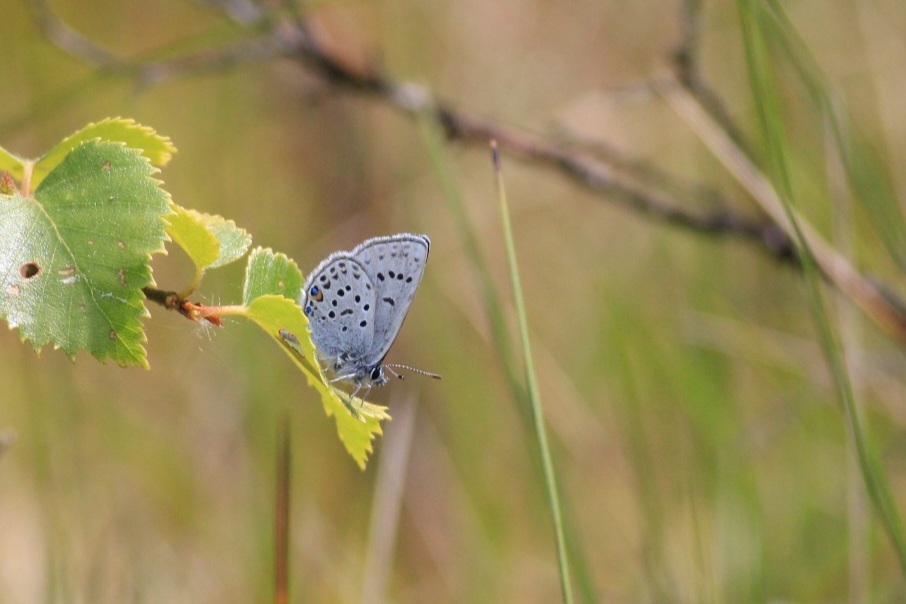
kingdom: Animalia
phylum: Arthropoda
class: Insecta
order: Lepidoptera
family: Lycaenidae
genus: Vacciniina
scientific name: Vacciniina optilete
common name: Bølleblåfugl
